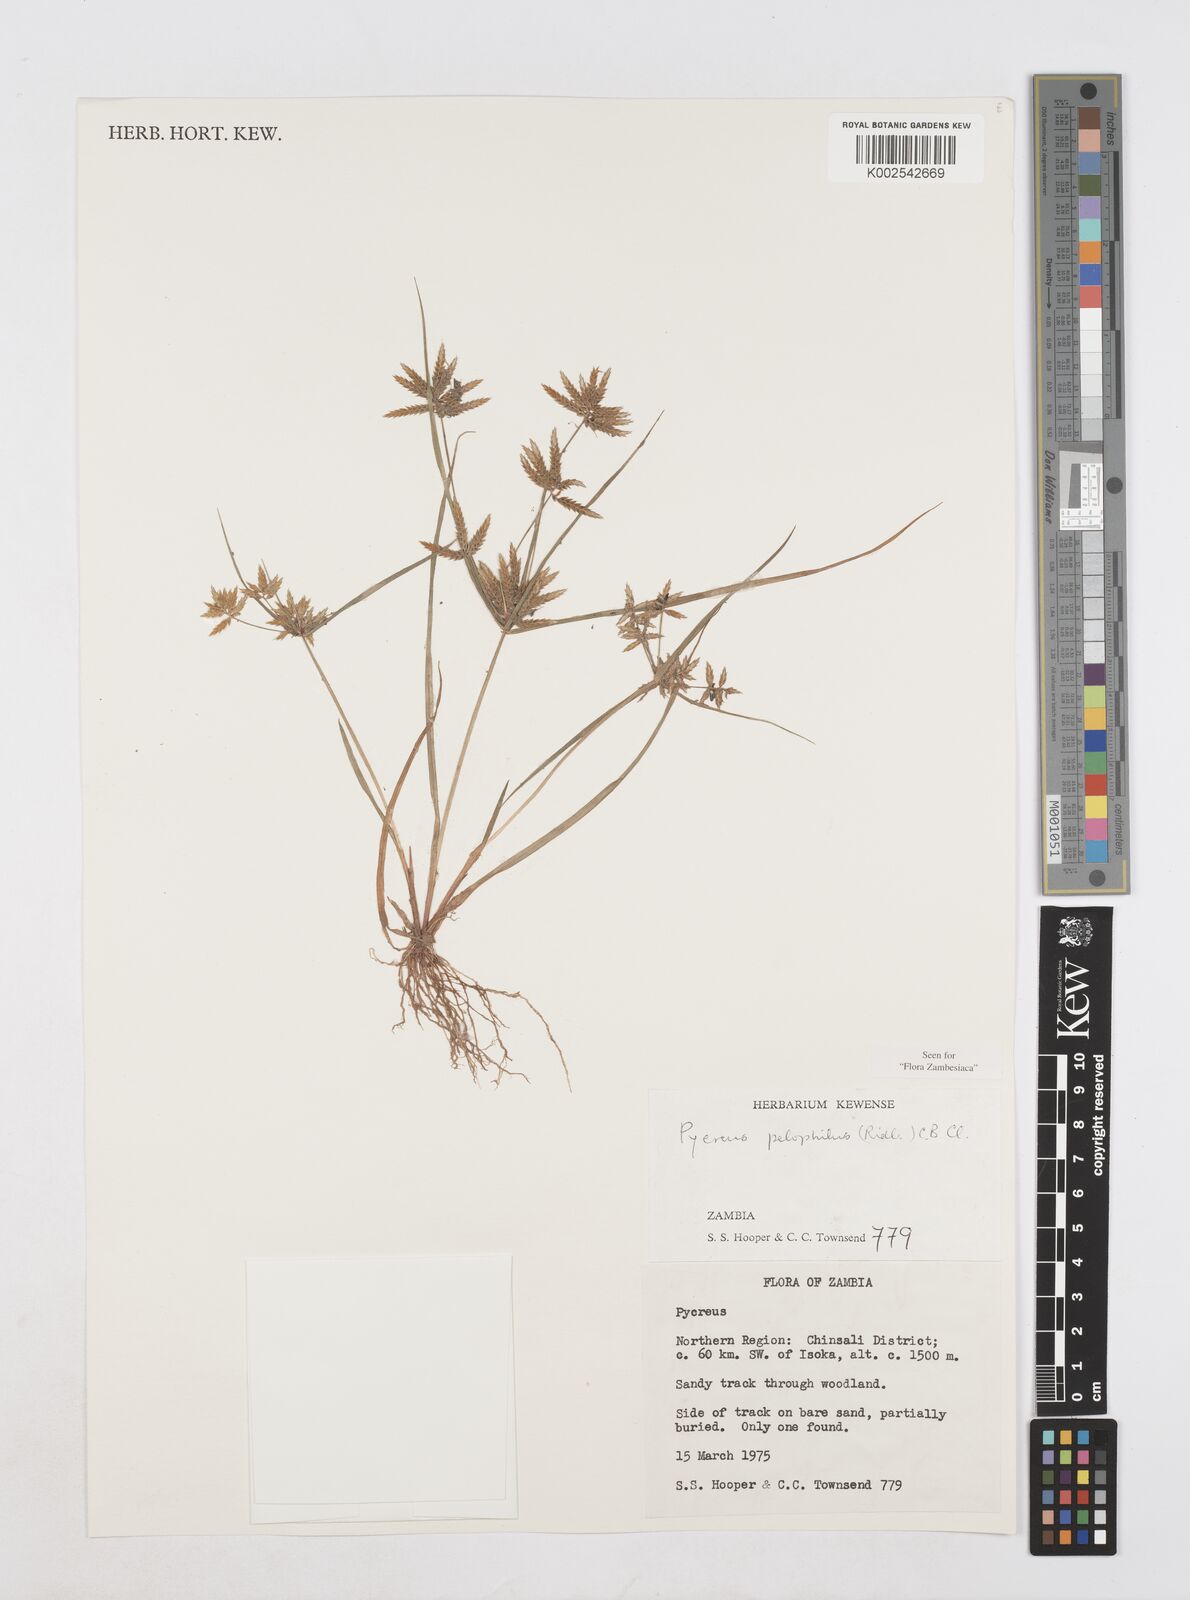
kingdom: Plantae
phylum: Tracheophyta
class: Liliopsida
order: Poales
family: Cyperaceae
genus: Cyperus
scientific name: Cyperus pelophilus
